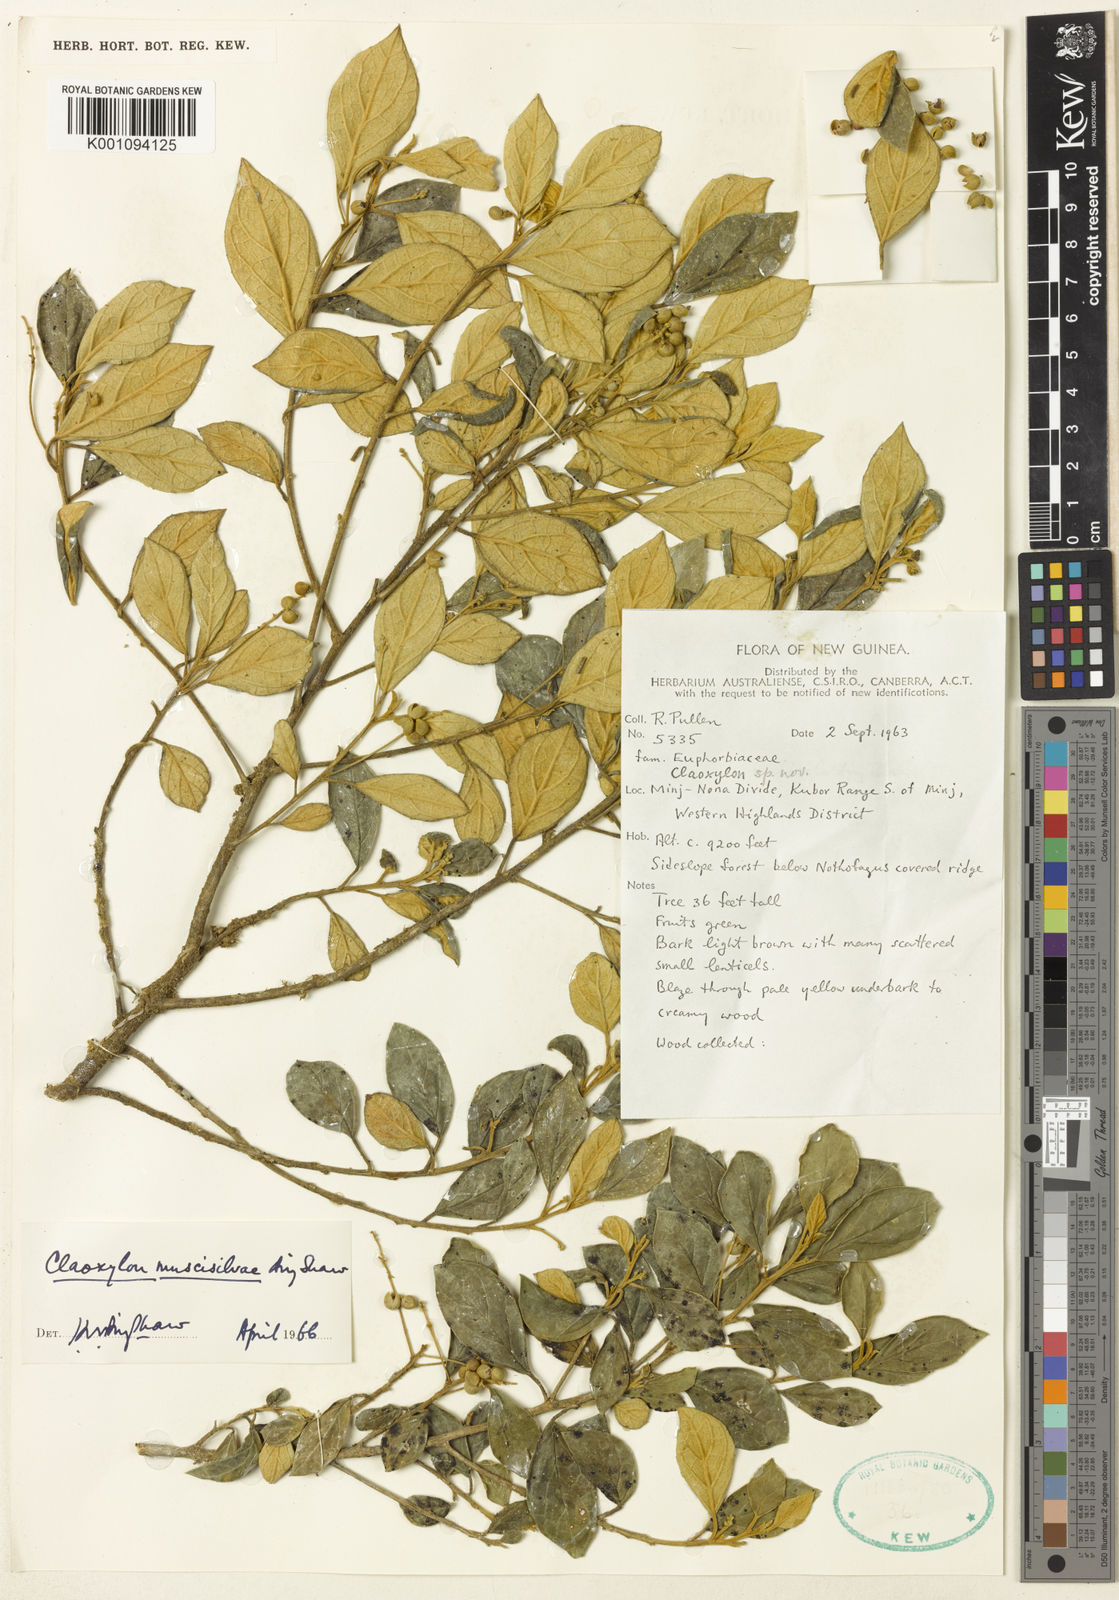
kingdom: Plantae
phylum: Tracheophyta
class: Magnoliopsida
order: Malpighiales
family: Euphorbiaceae
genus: Claoxylon
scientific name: Claoxylon microcarpum
